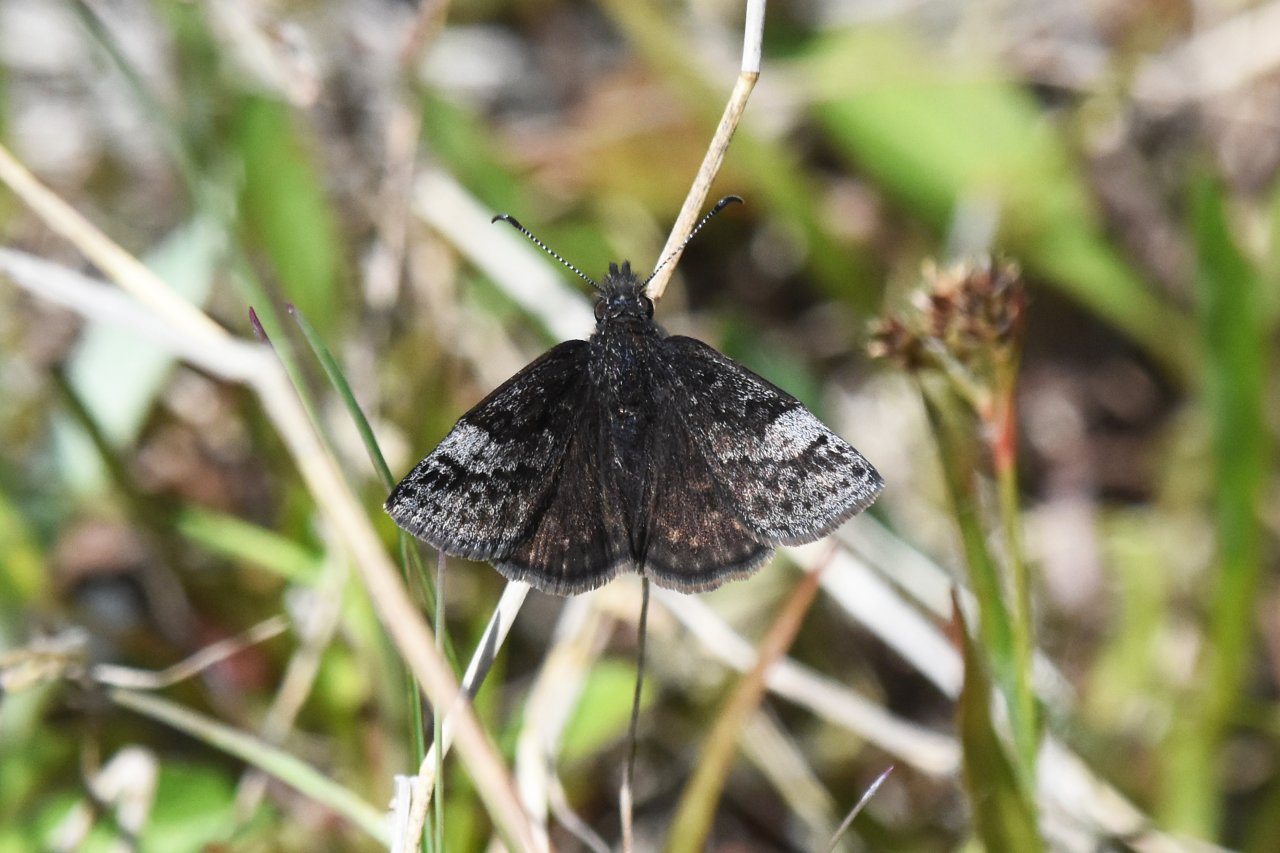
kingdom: Animalia
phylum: Arthropoda
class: Insecta
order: Lepidoptera
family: Hesperiidae
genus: Erynnis
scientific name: Erynnis icelus
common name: Dreamy Duskywing
